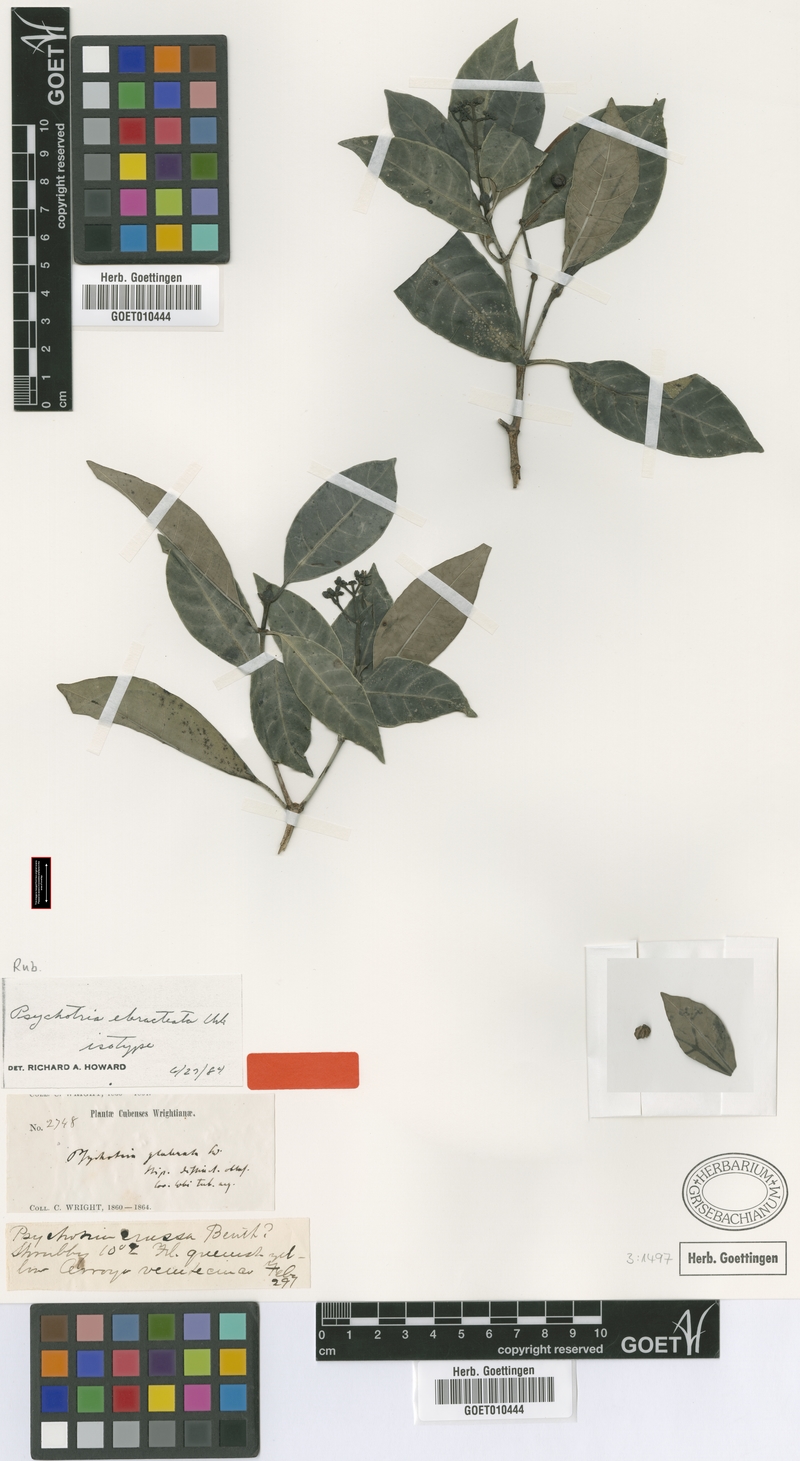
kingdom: Plantae
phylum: Tracheophyta
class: Magnoliopsida
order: Gentianales
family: Rubiaceae
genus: Psychotria
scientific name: Psychotria ebracteata
